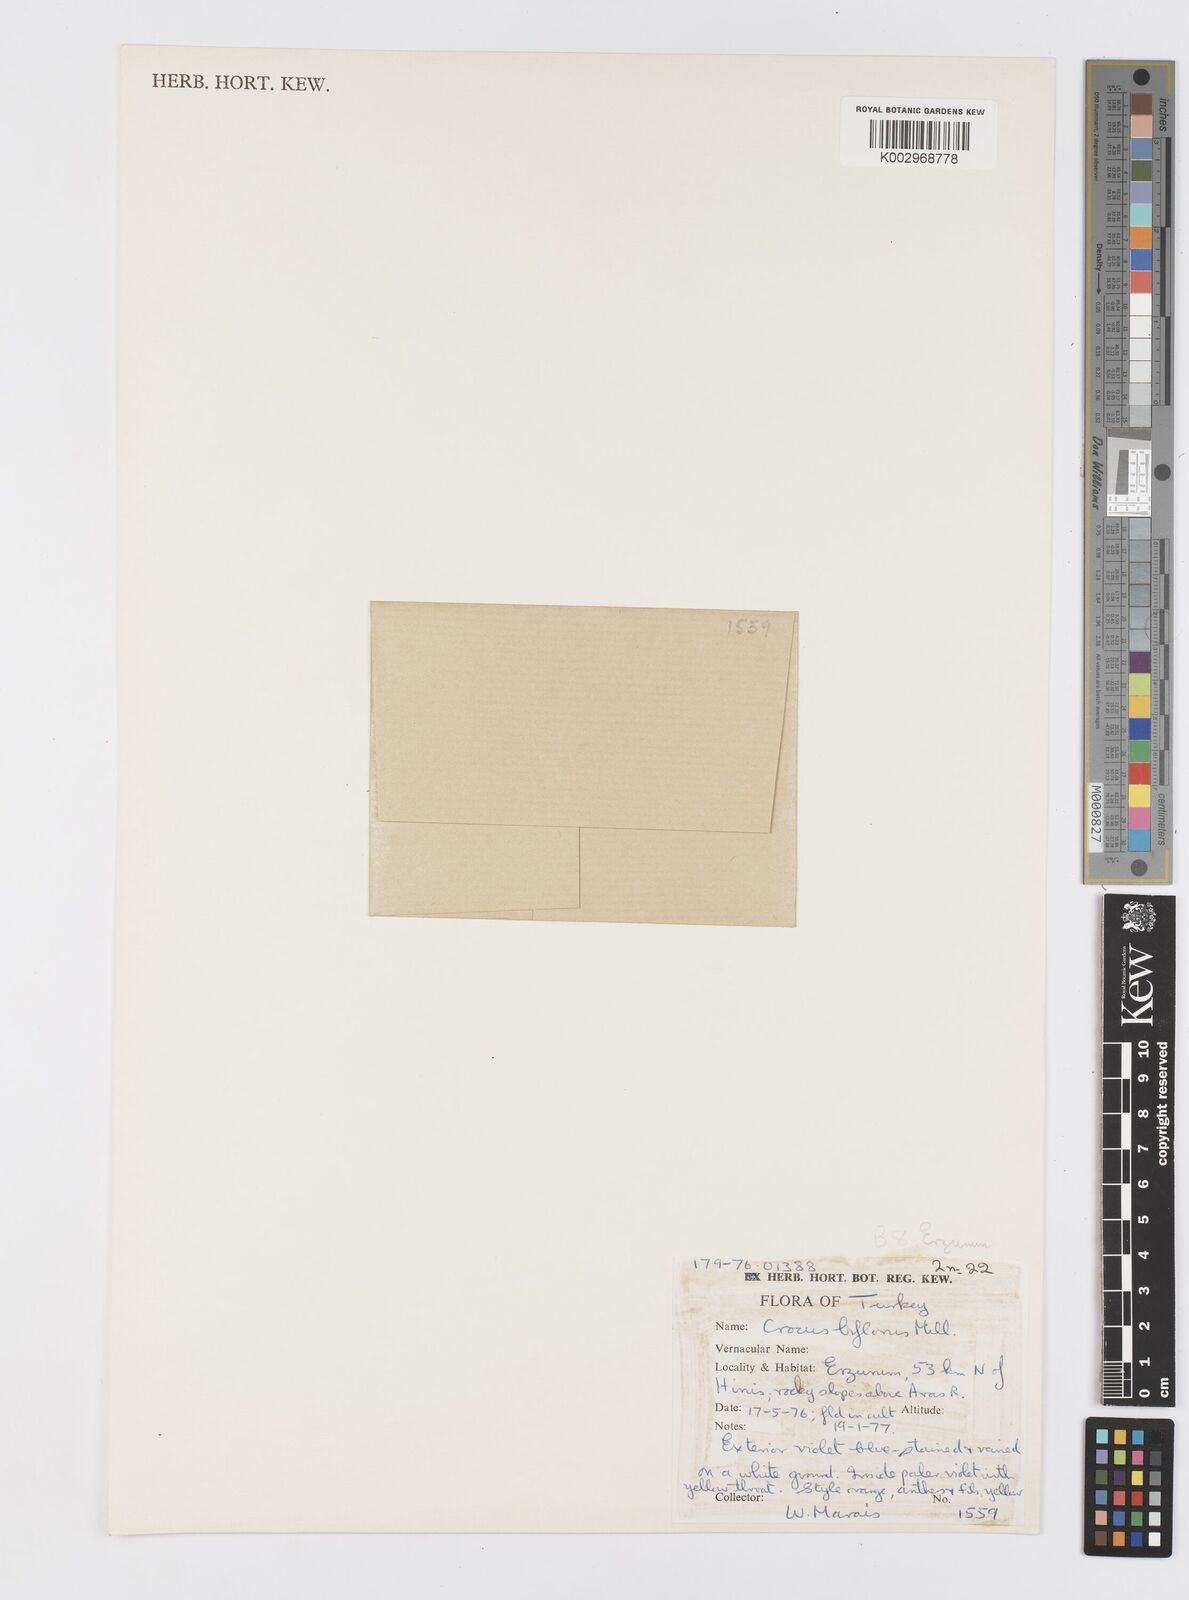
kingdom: Plantae
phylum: Tracheophyta
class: Liliopsida
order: Asparagales
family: Iridaceae
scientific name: Iridaceae
